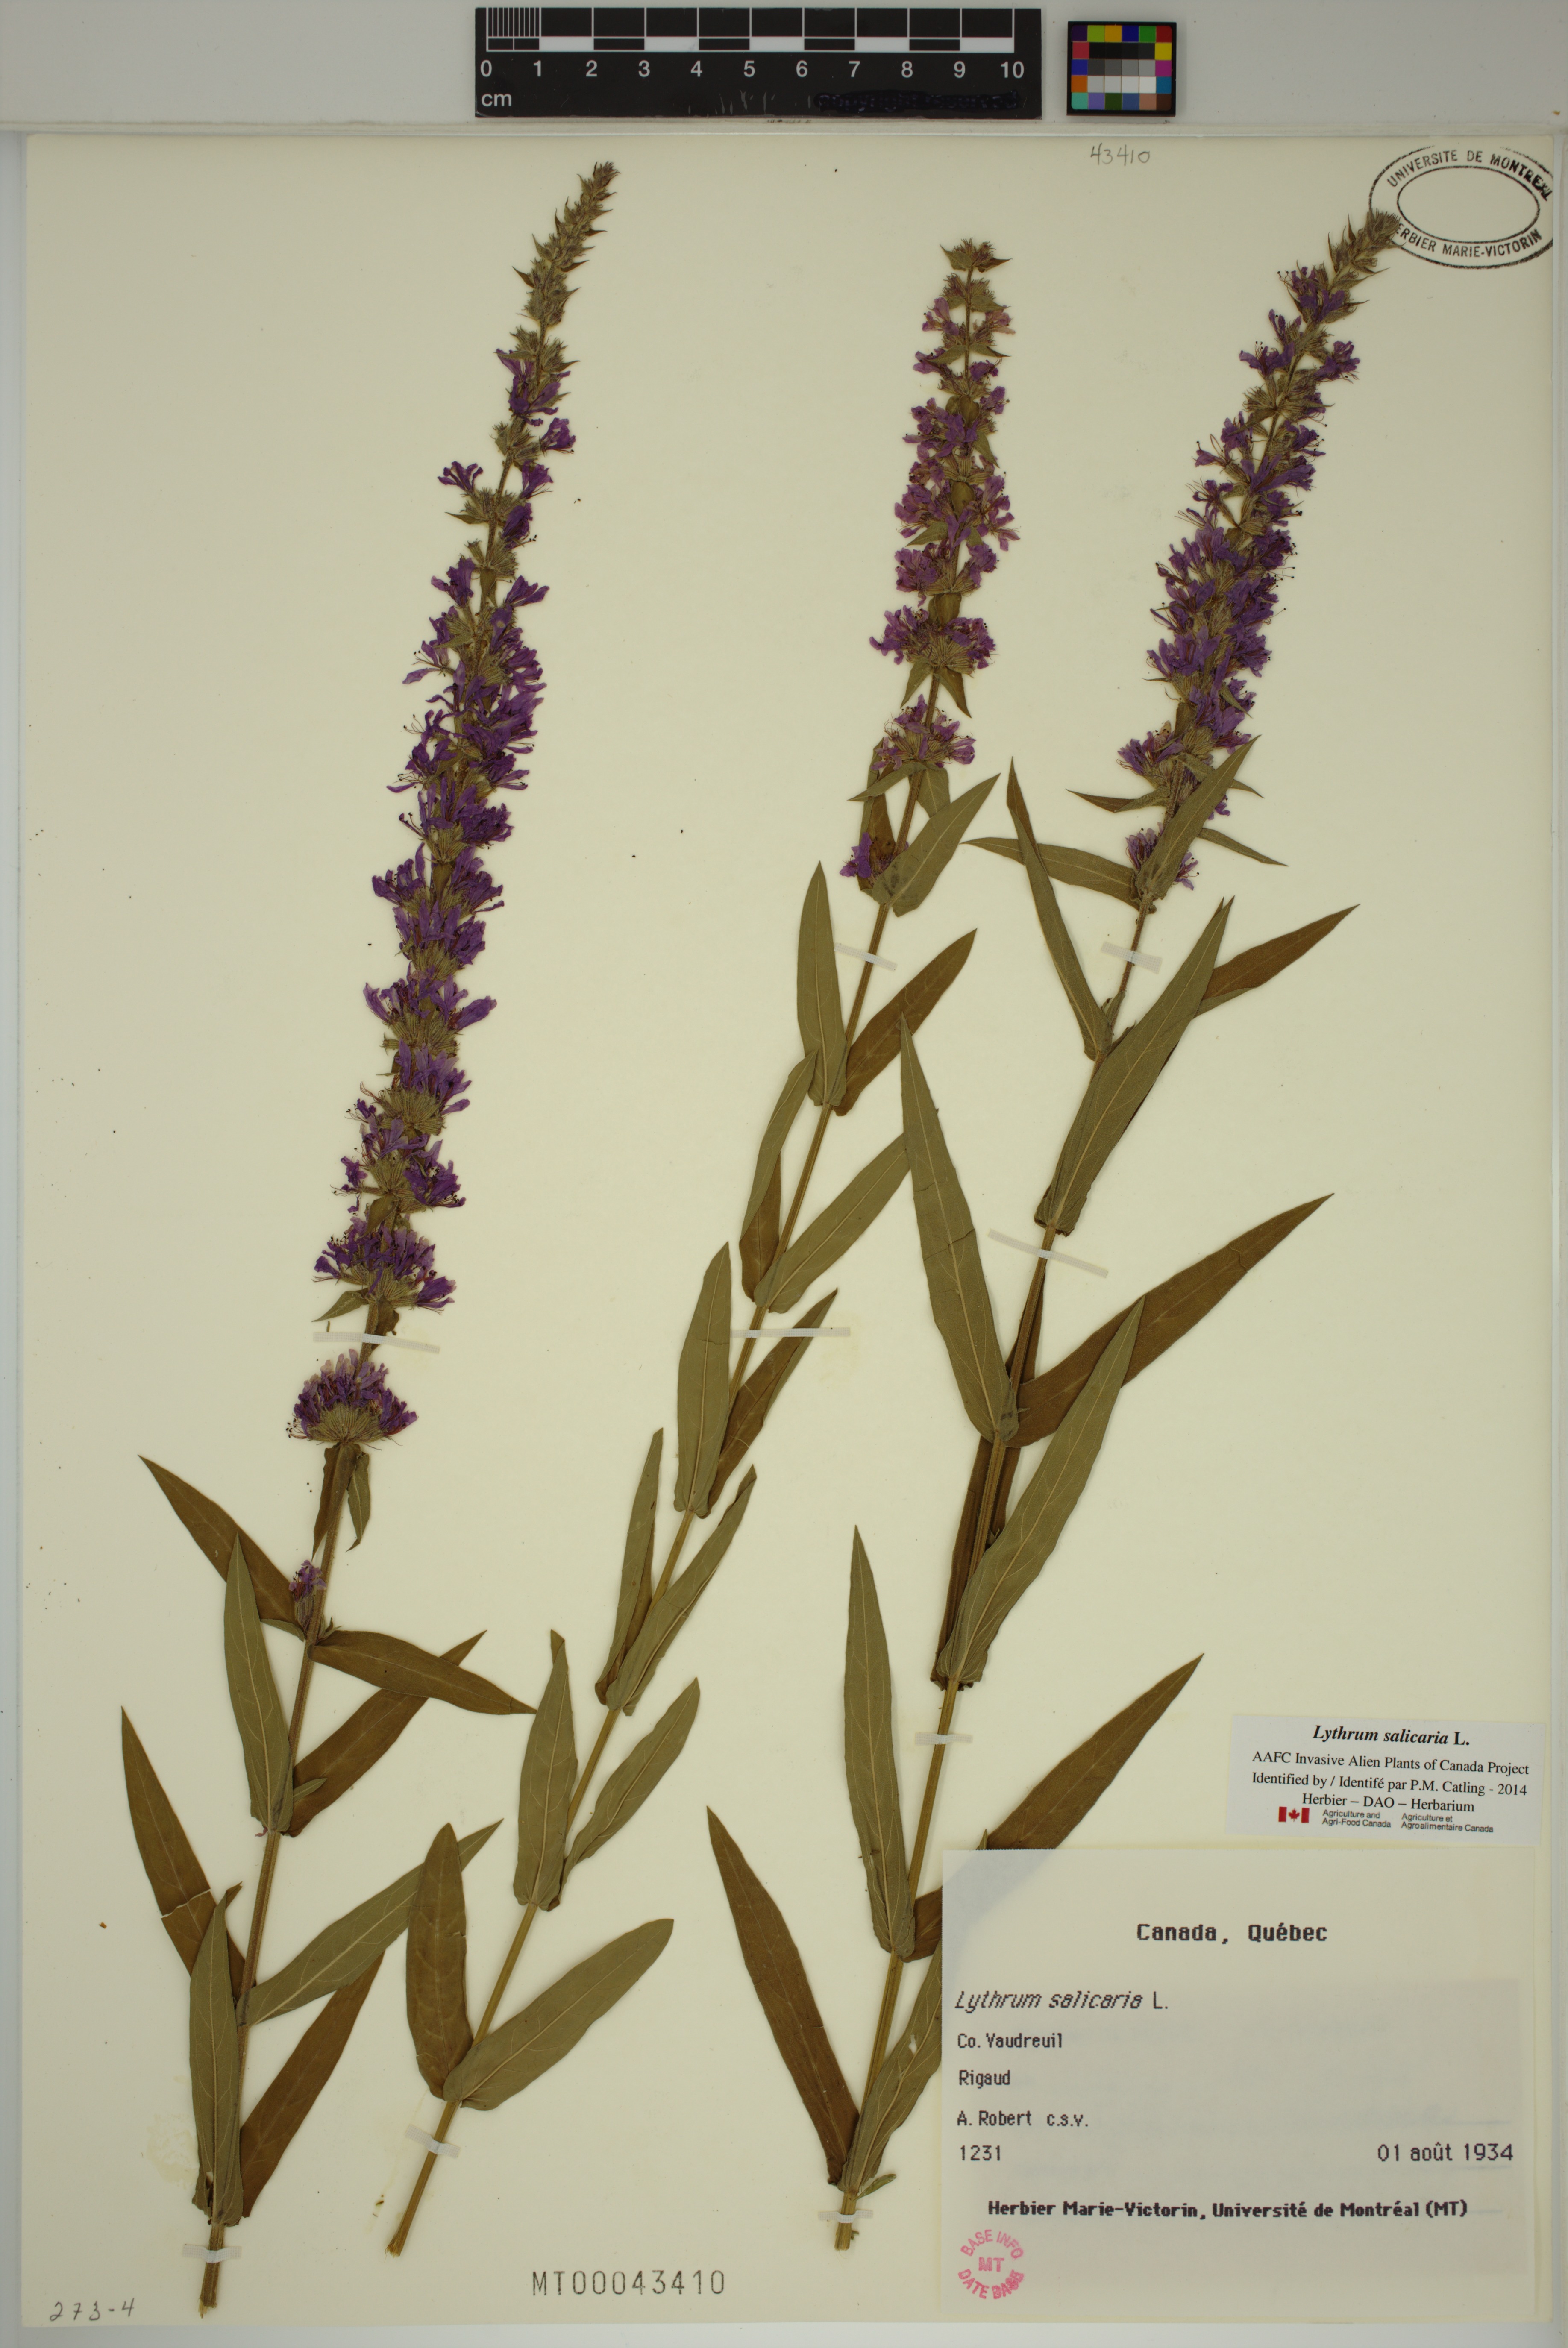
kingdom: Plantae
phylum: Tracheophyta
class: Magnoliopsida
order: Myrtales
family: Lythraceae
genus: Lythrum
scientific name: Lythrum salicaria
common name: Purple loosestrife
